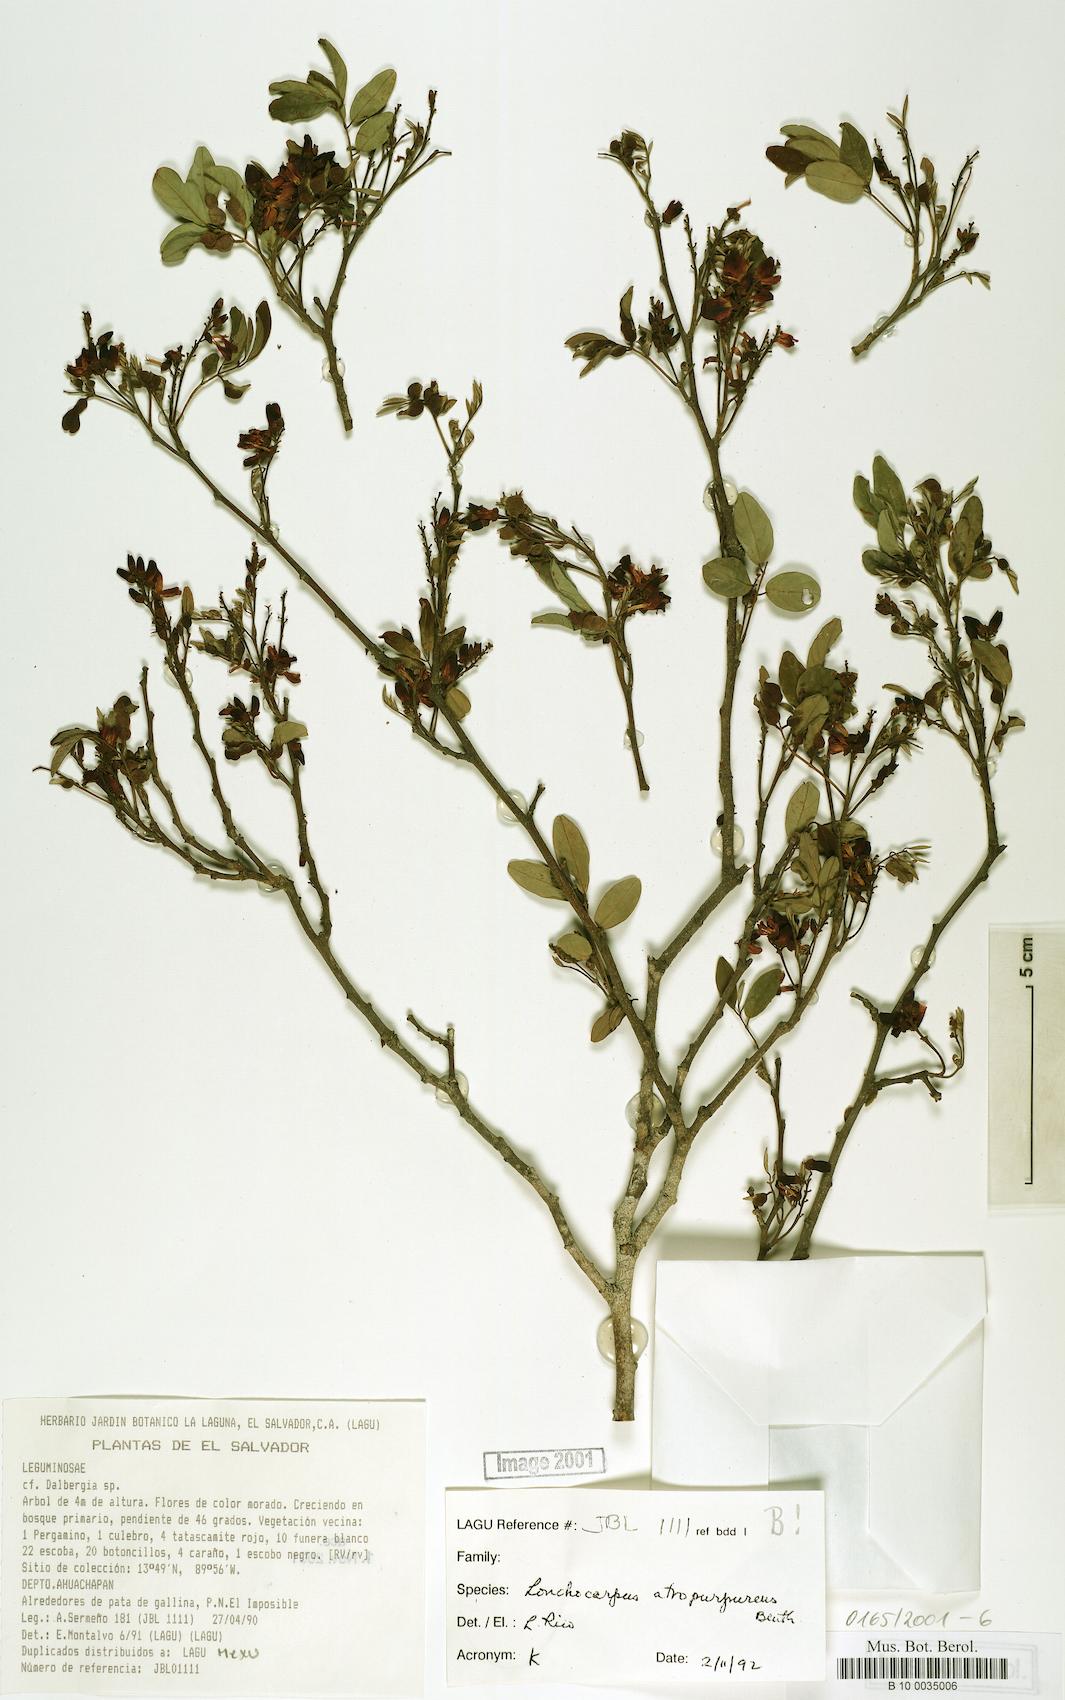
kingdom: Plantae
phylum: Tracheophyta
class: Magnoliopsida
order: Fabales
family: Fabaceae
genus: Lonchocarpus
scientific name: Lonchocarpus atropurpureus
